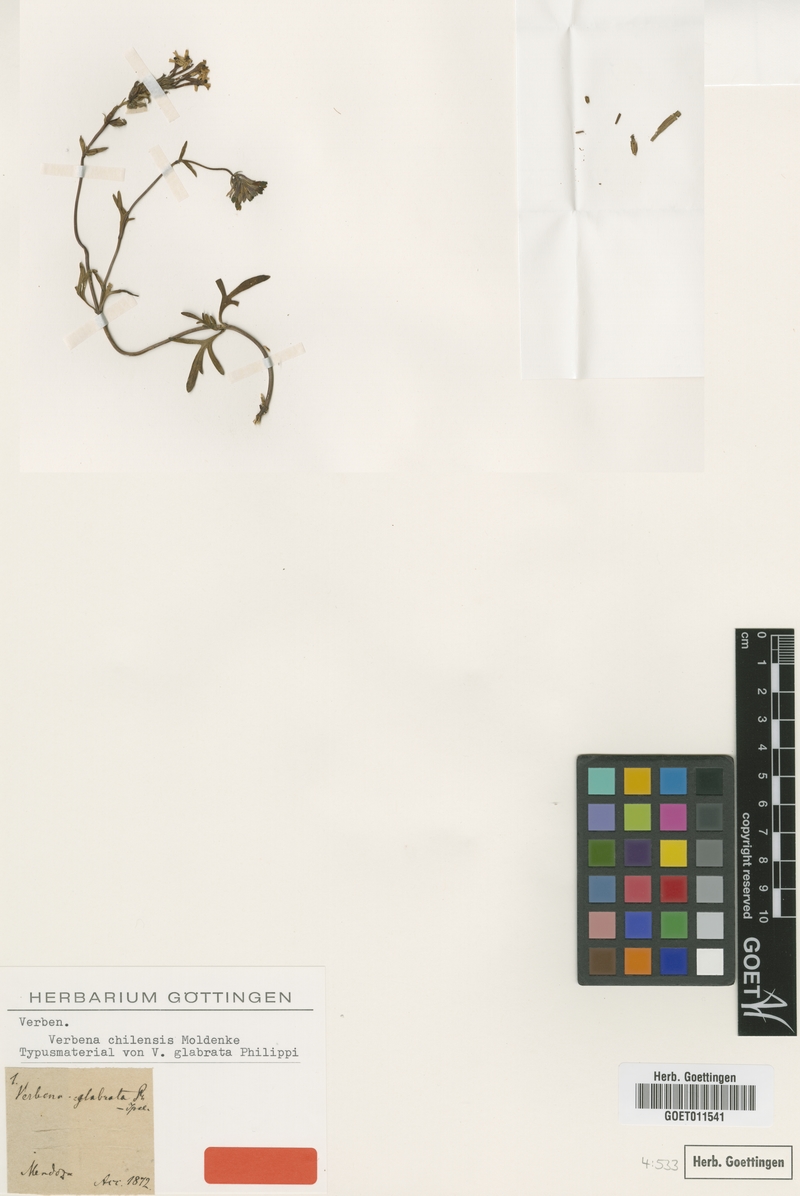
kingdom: Plantae
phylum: Tracheophyta
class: Magnoliopsida
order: Lamiales
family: Verbenaceae
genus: Verbena
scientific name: Verbena araucana
